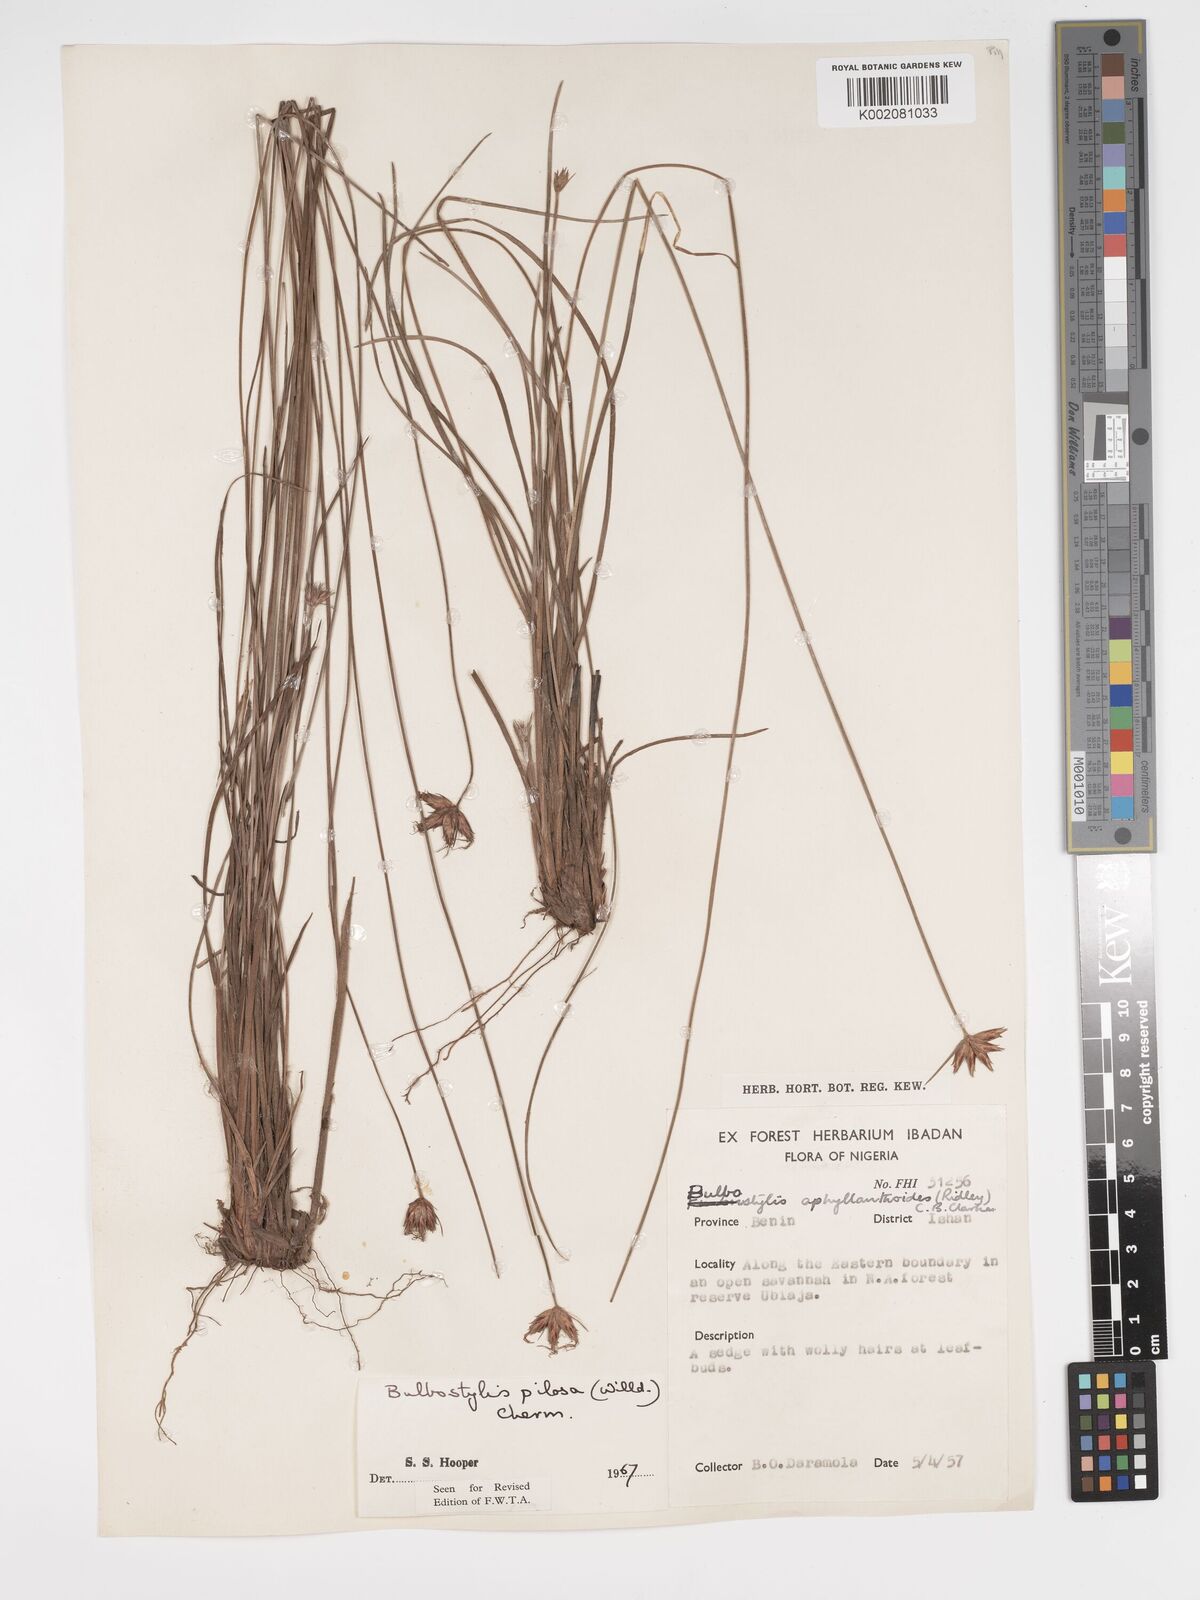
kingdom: Plantae
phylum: Tracheophyta
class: Liliopsida
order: Poales
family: Cyperaceae
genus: Bulbostylis
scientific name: Bulbostylis pilosa
